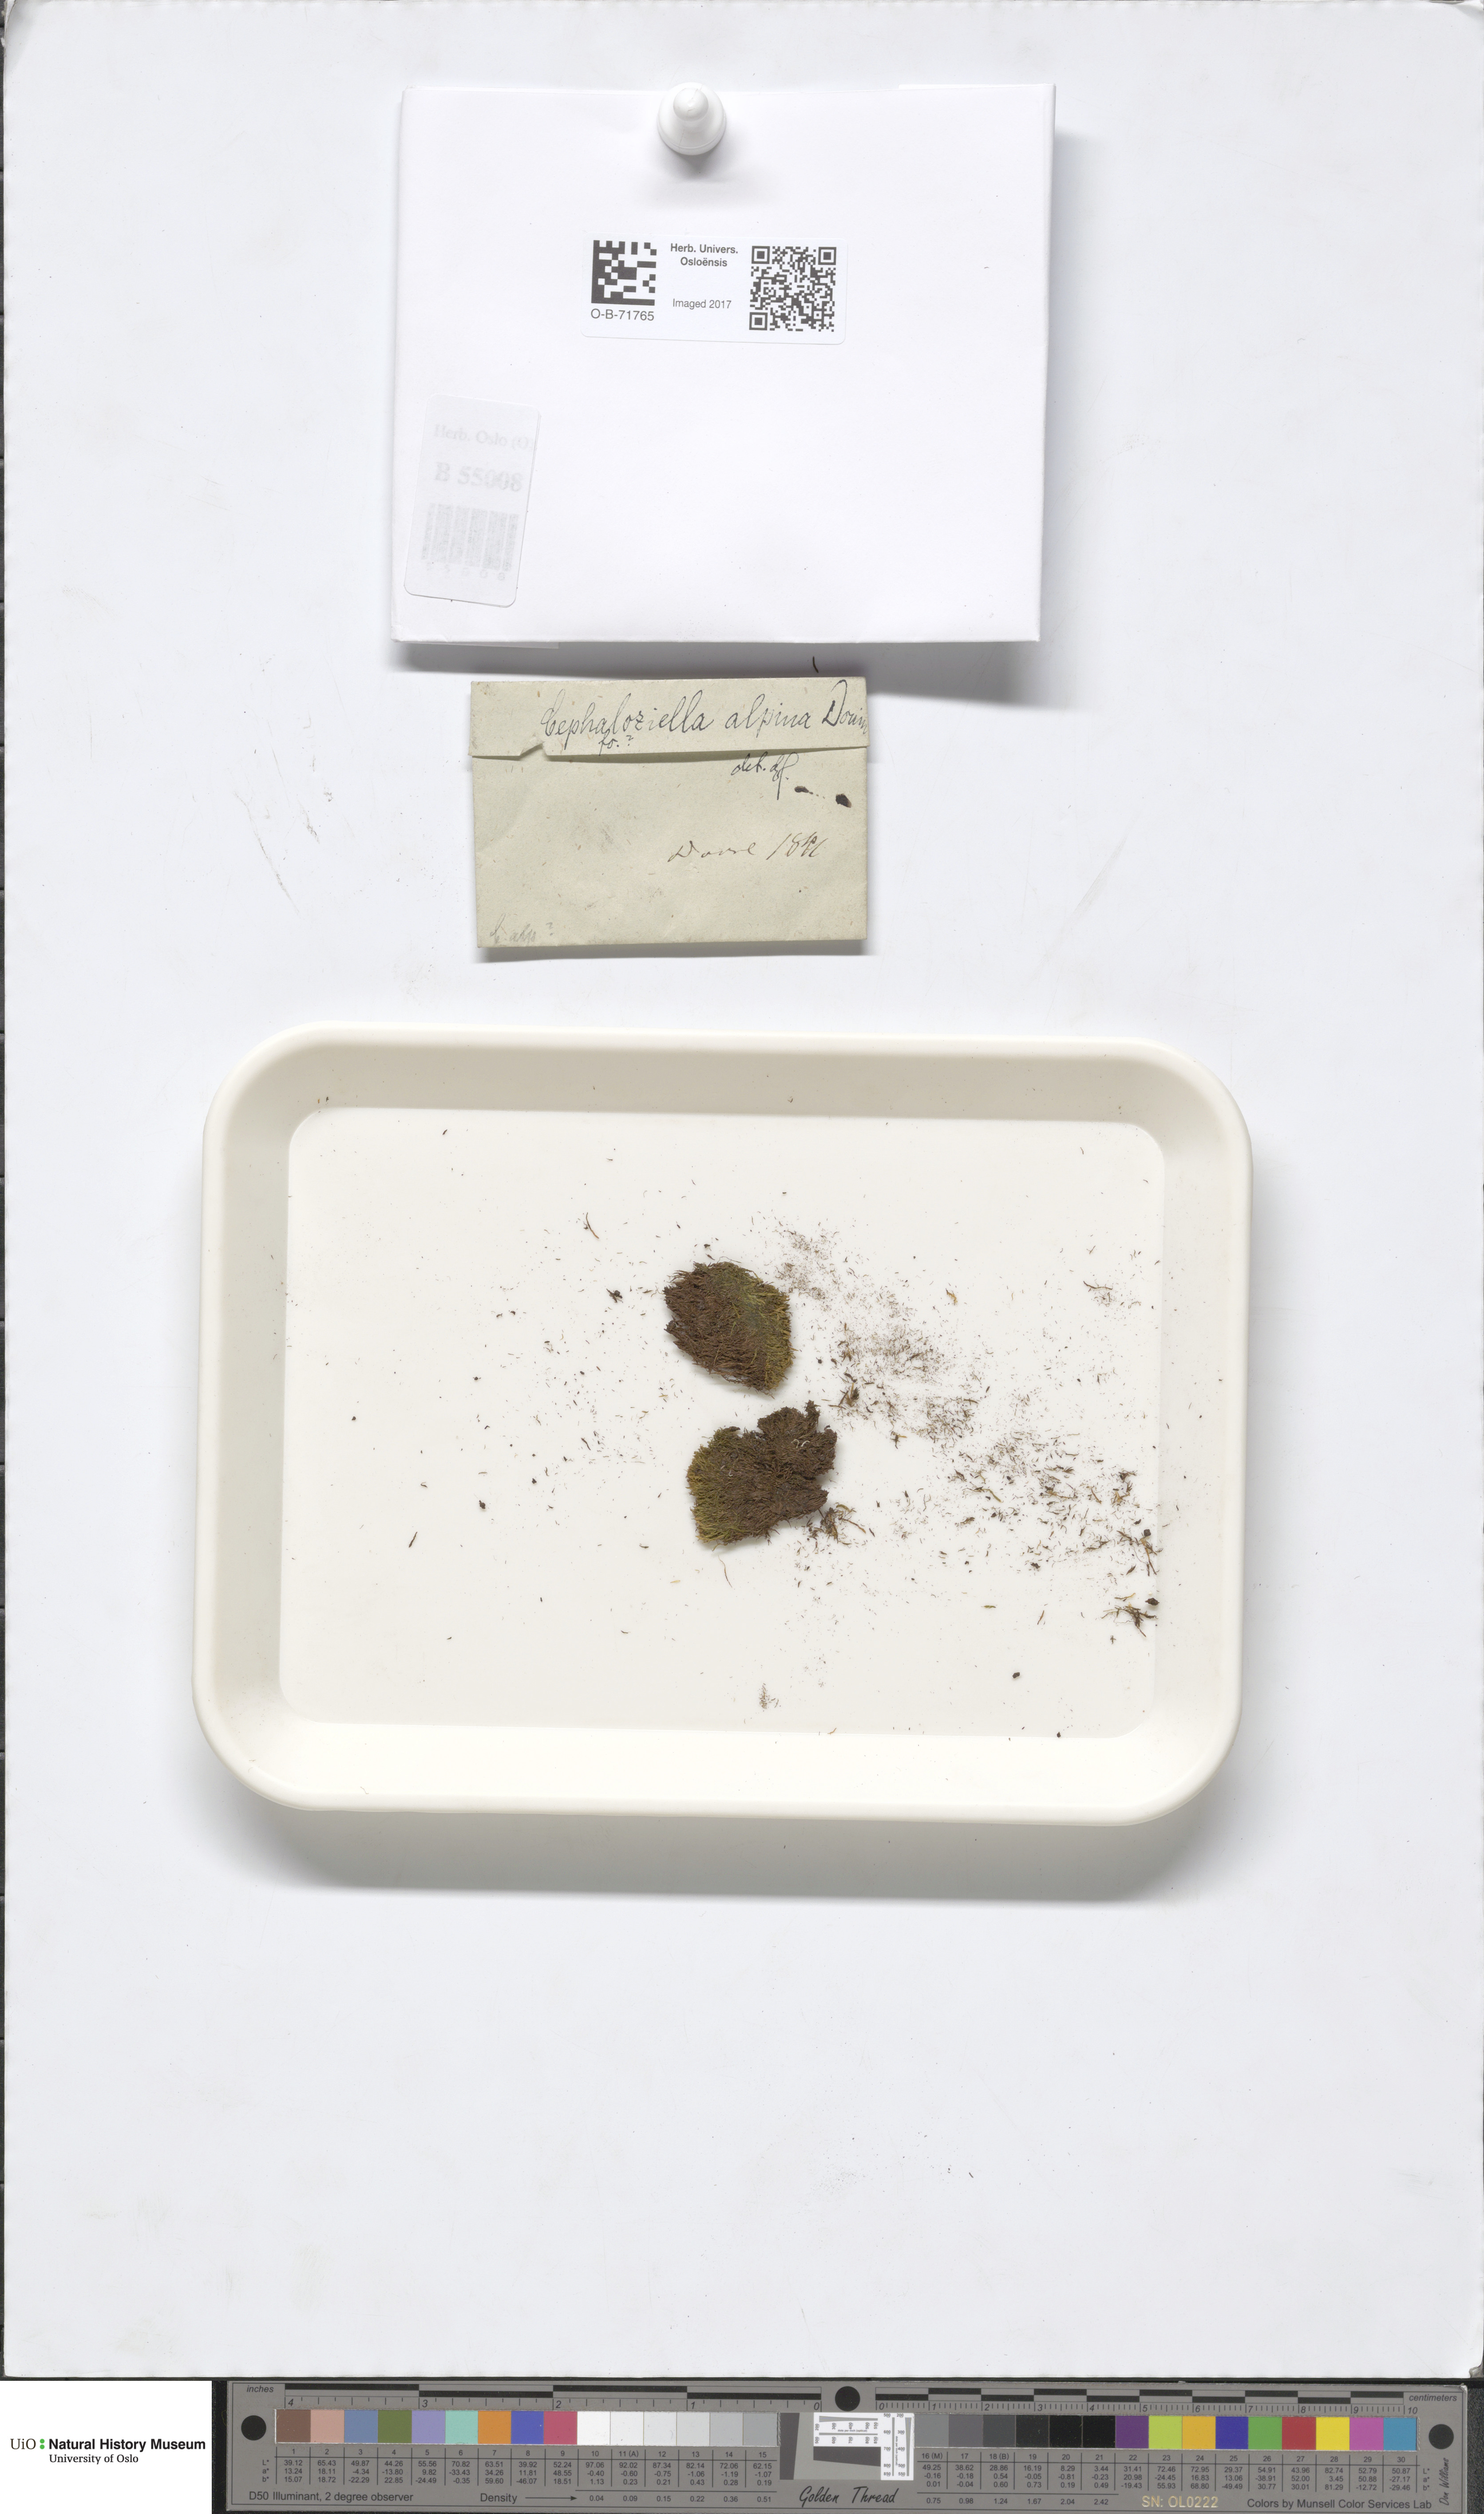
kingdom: Plantae
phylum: Marchantiophyta
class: Jungermanniopsida
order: Jungermanniales
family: Cephaloziellaceae
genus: Cephaloziella
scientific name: Cephaloziella varians
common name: Arctic threadwort
